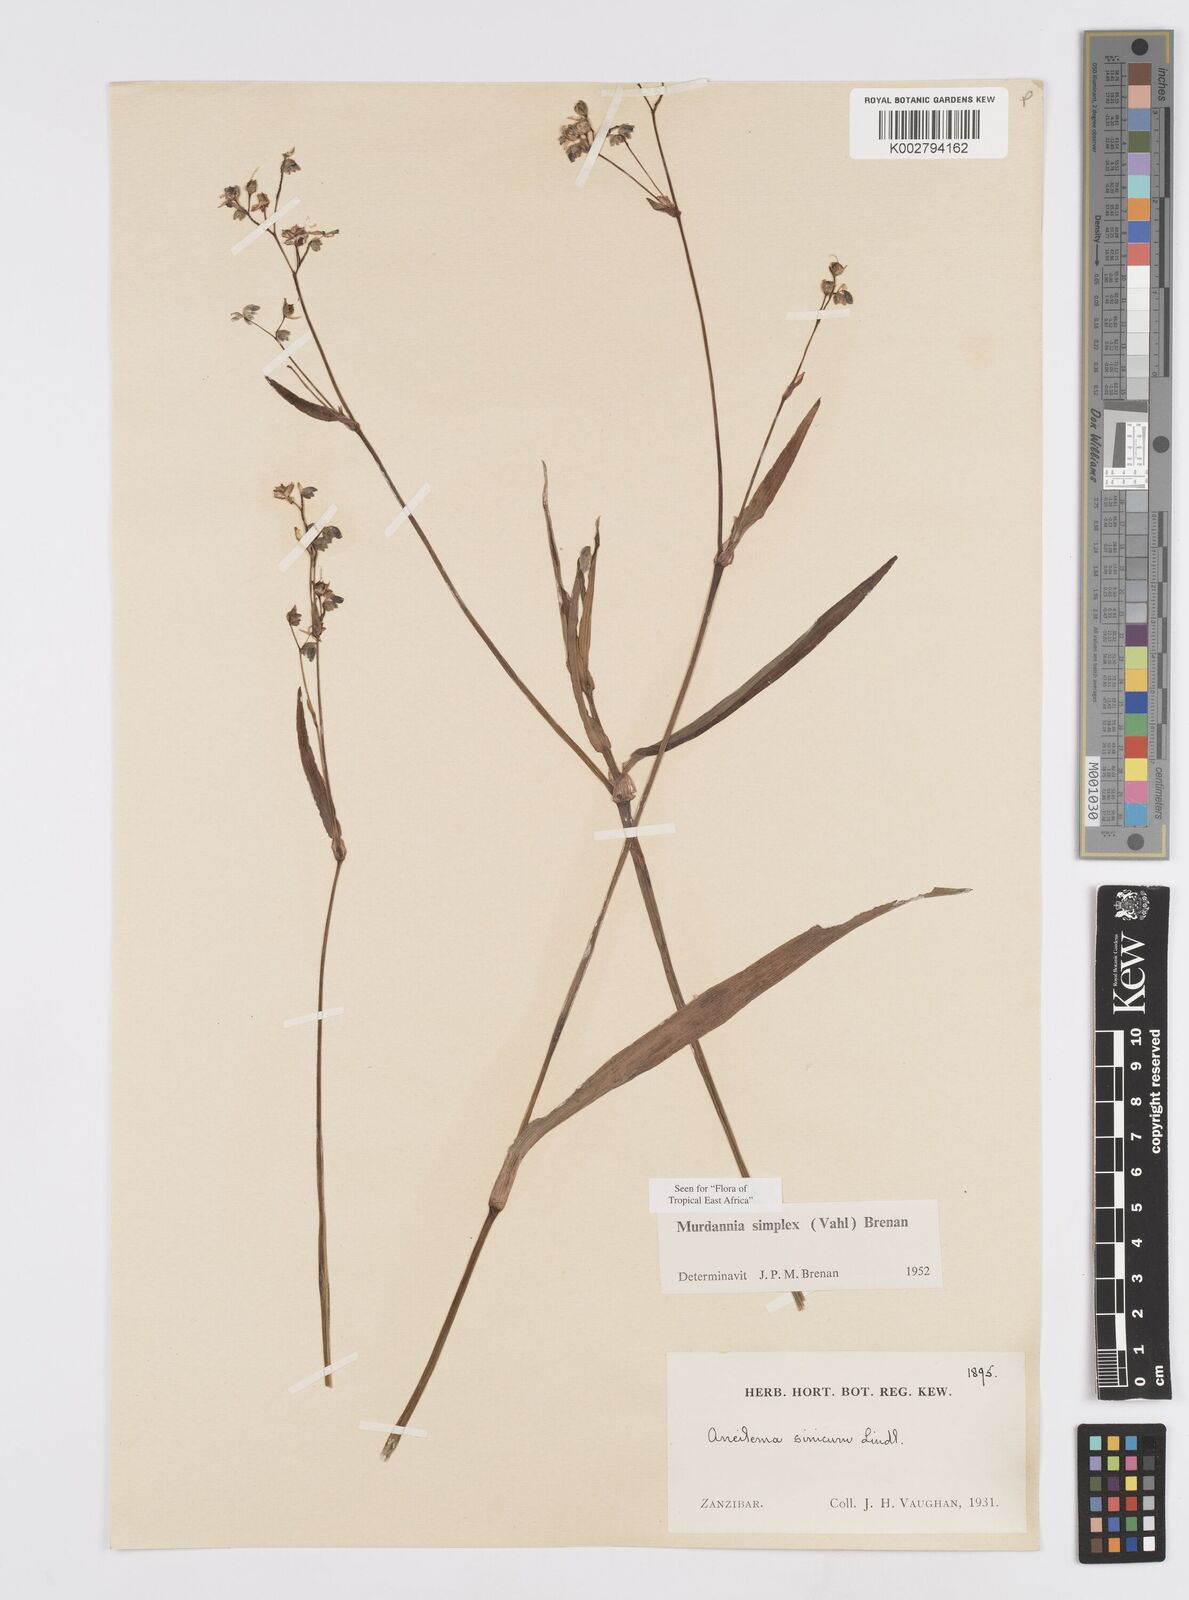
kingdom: Plantae
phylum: Tracheophyta
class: Liliopsida
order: Commelinales
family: Commelinaceae
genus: Murdannia
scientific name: Murdannia simplex
